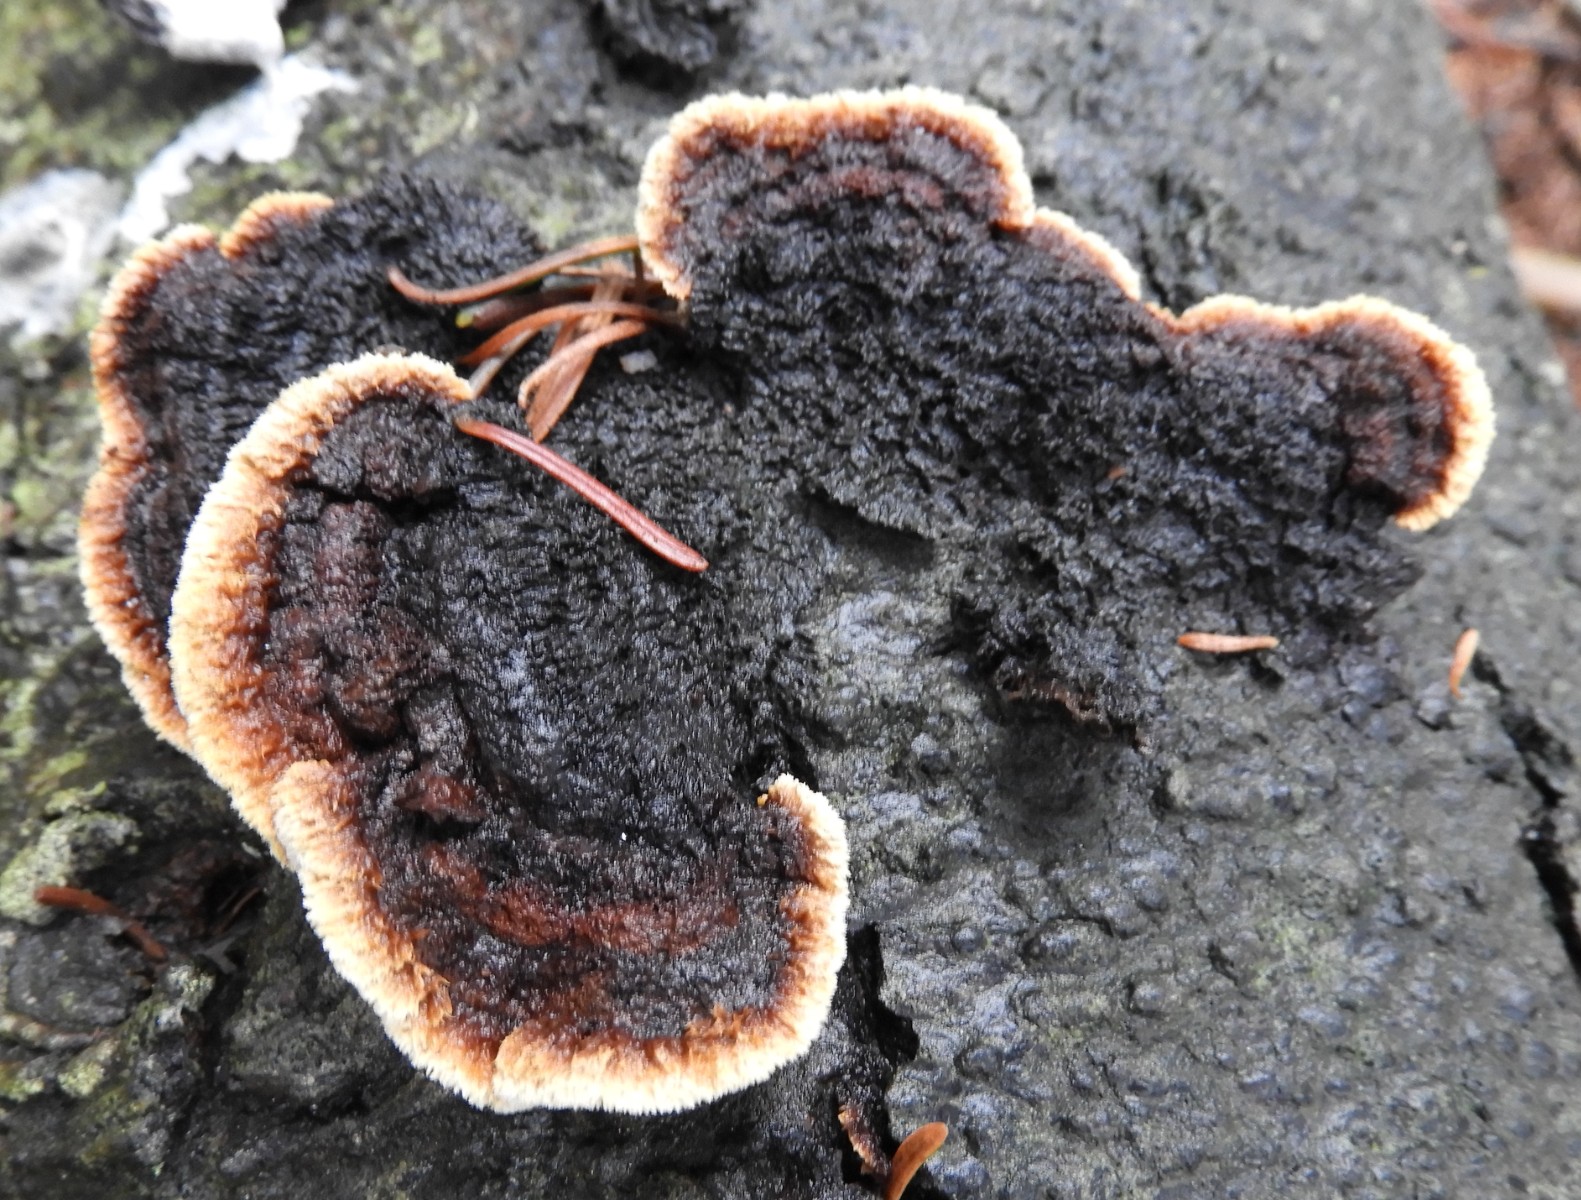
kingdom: Fungi
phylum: Basidiomycota
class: Agaricomycetes
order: Gloeophyllales
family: Gloeophyllaceae
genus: Gloeophyllum
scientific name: Gloeophyllum sepiarium
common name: fyrre-korkhat
